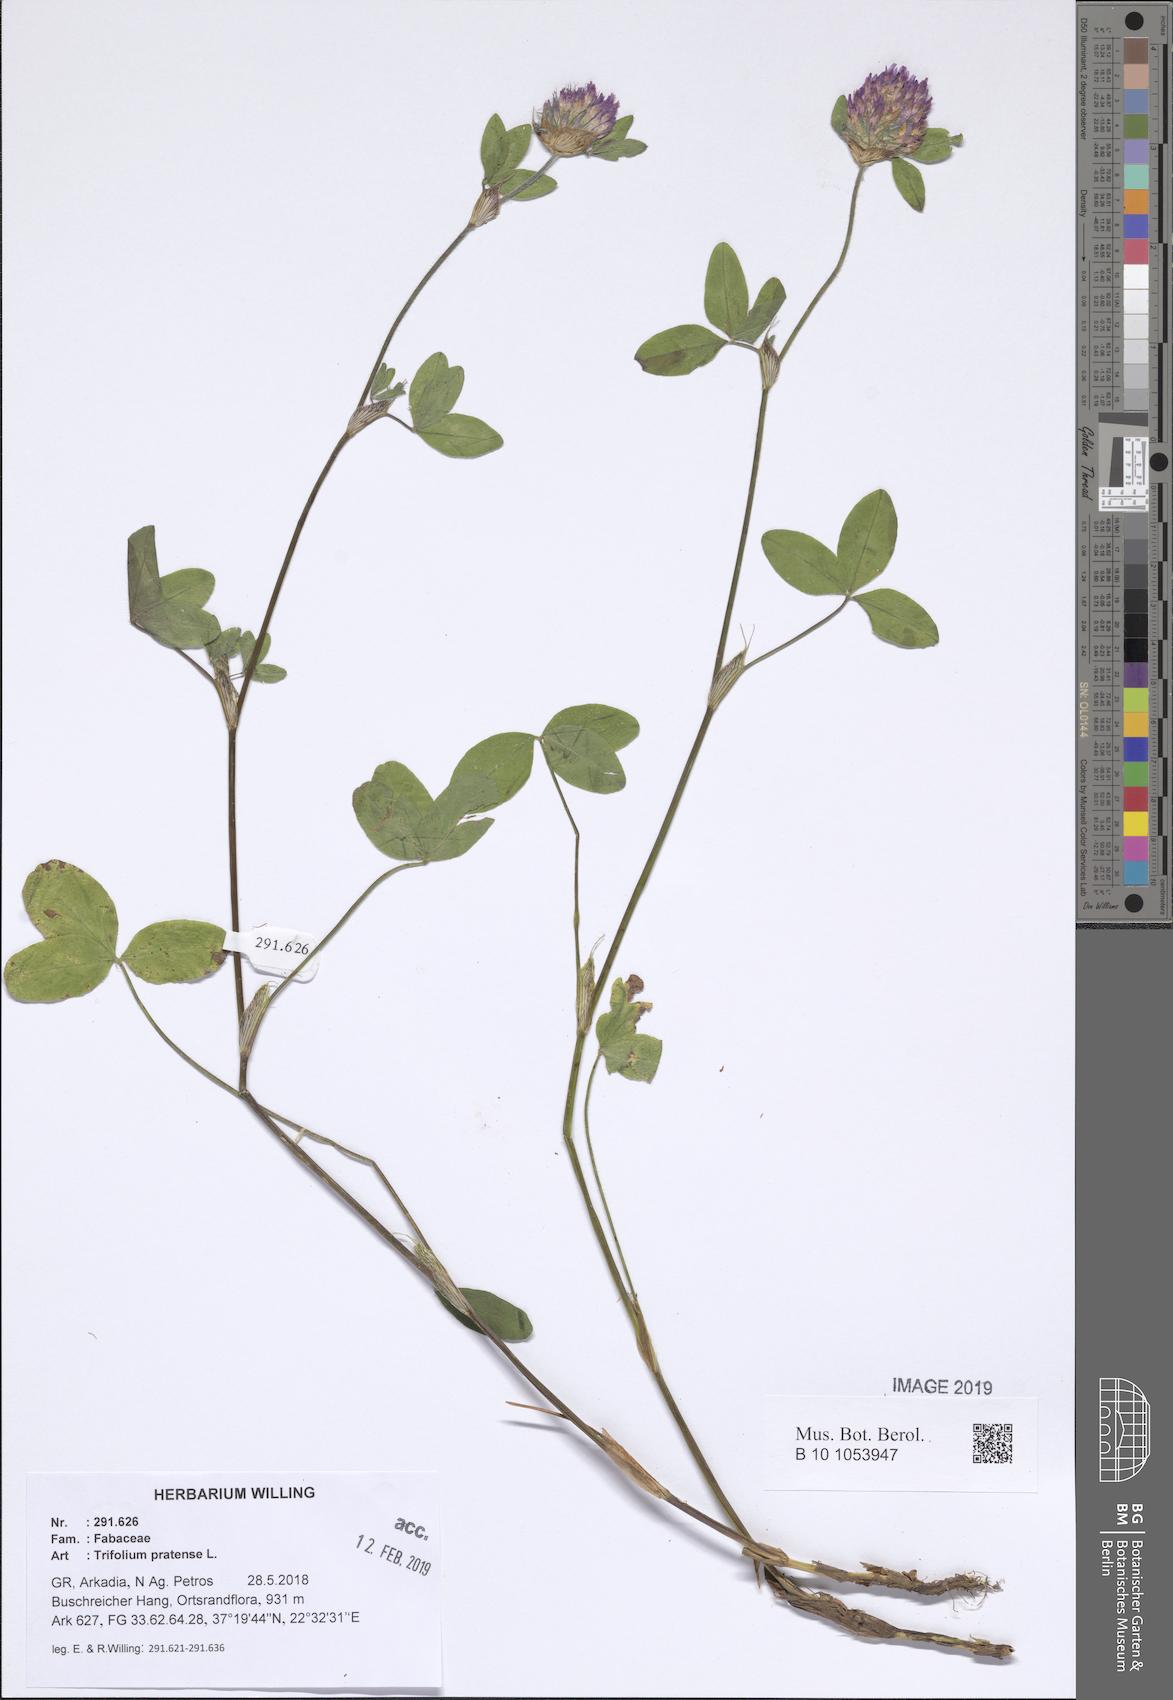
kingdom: Plantae
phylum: Tracheophyta
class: Magnoliopsida
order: Fabales
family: Fabaceae
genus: Trifolium
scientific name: Trifolium pratense
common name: Red clover
